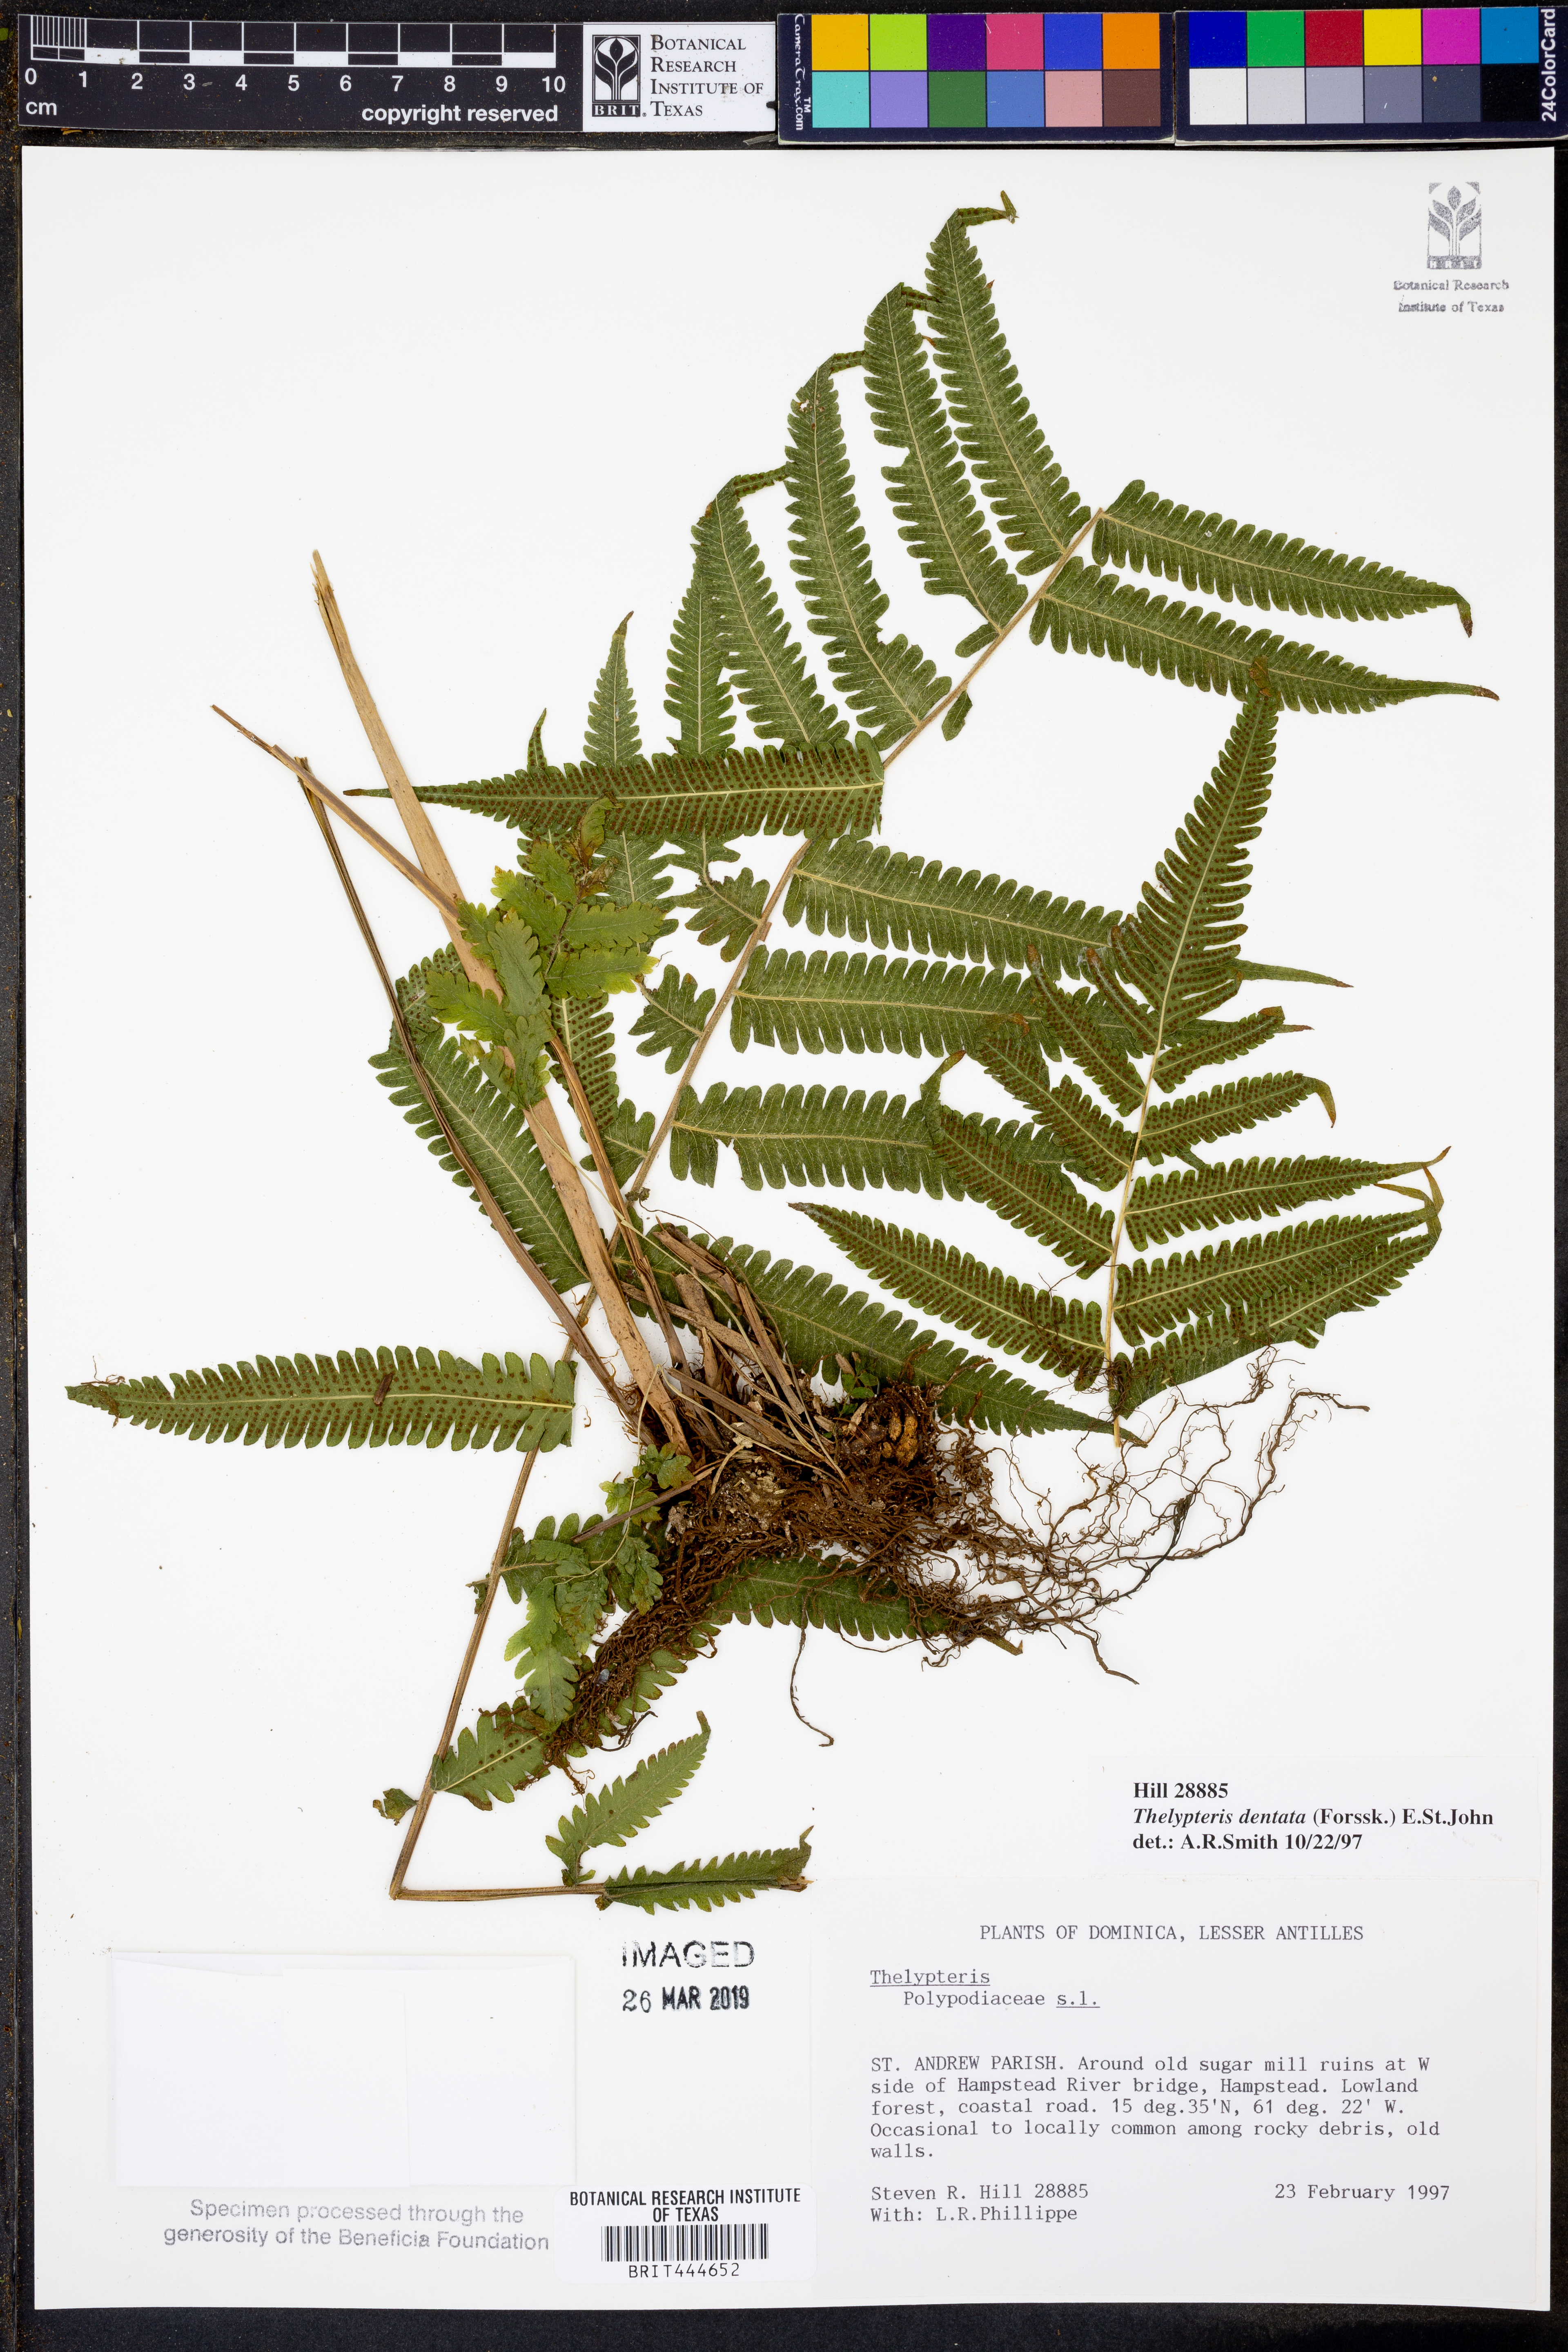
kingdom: Plantae
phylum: Tracheophyta
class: Polypodiopsida
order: Polypodiales
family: Thelypteridaceae
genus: Christella
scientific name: Christella dentata
